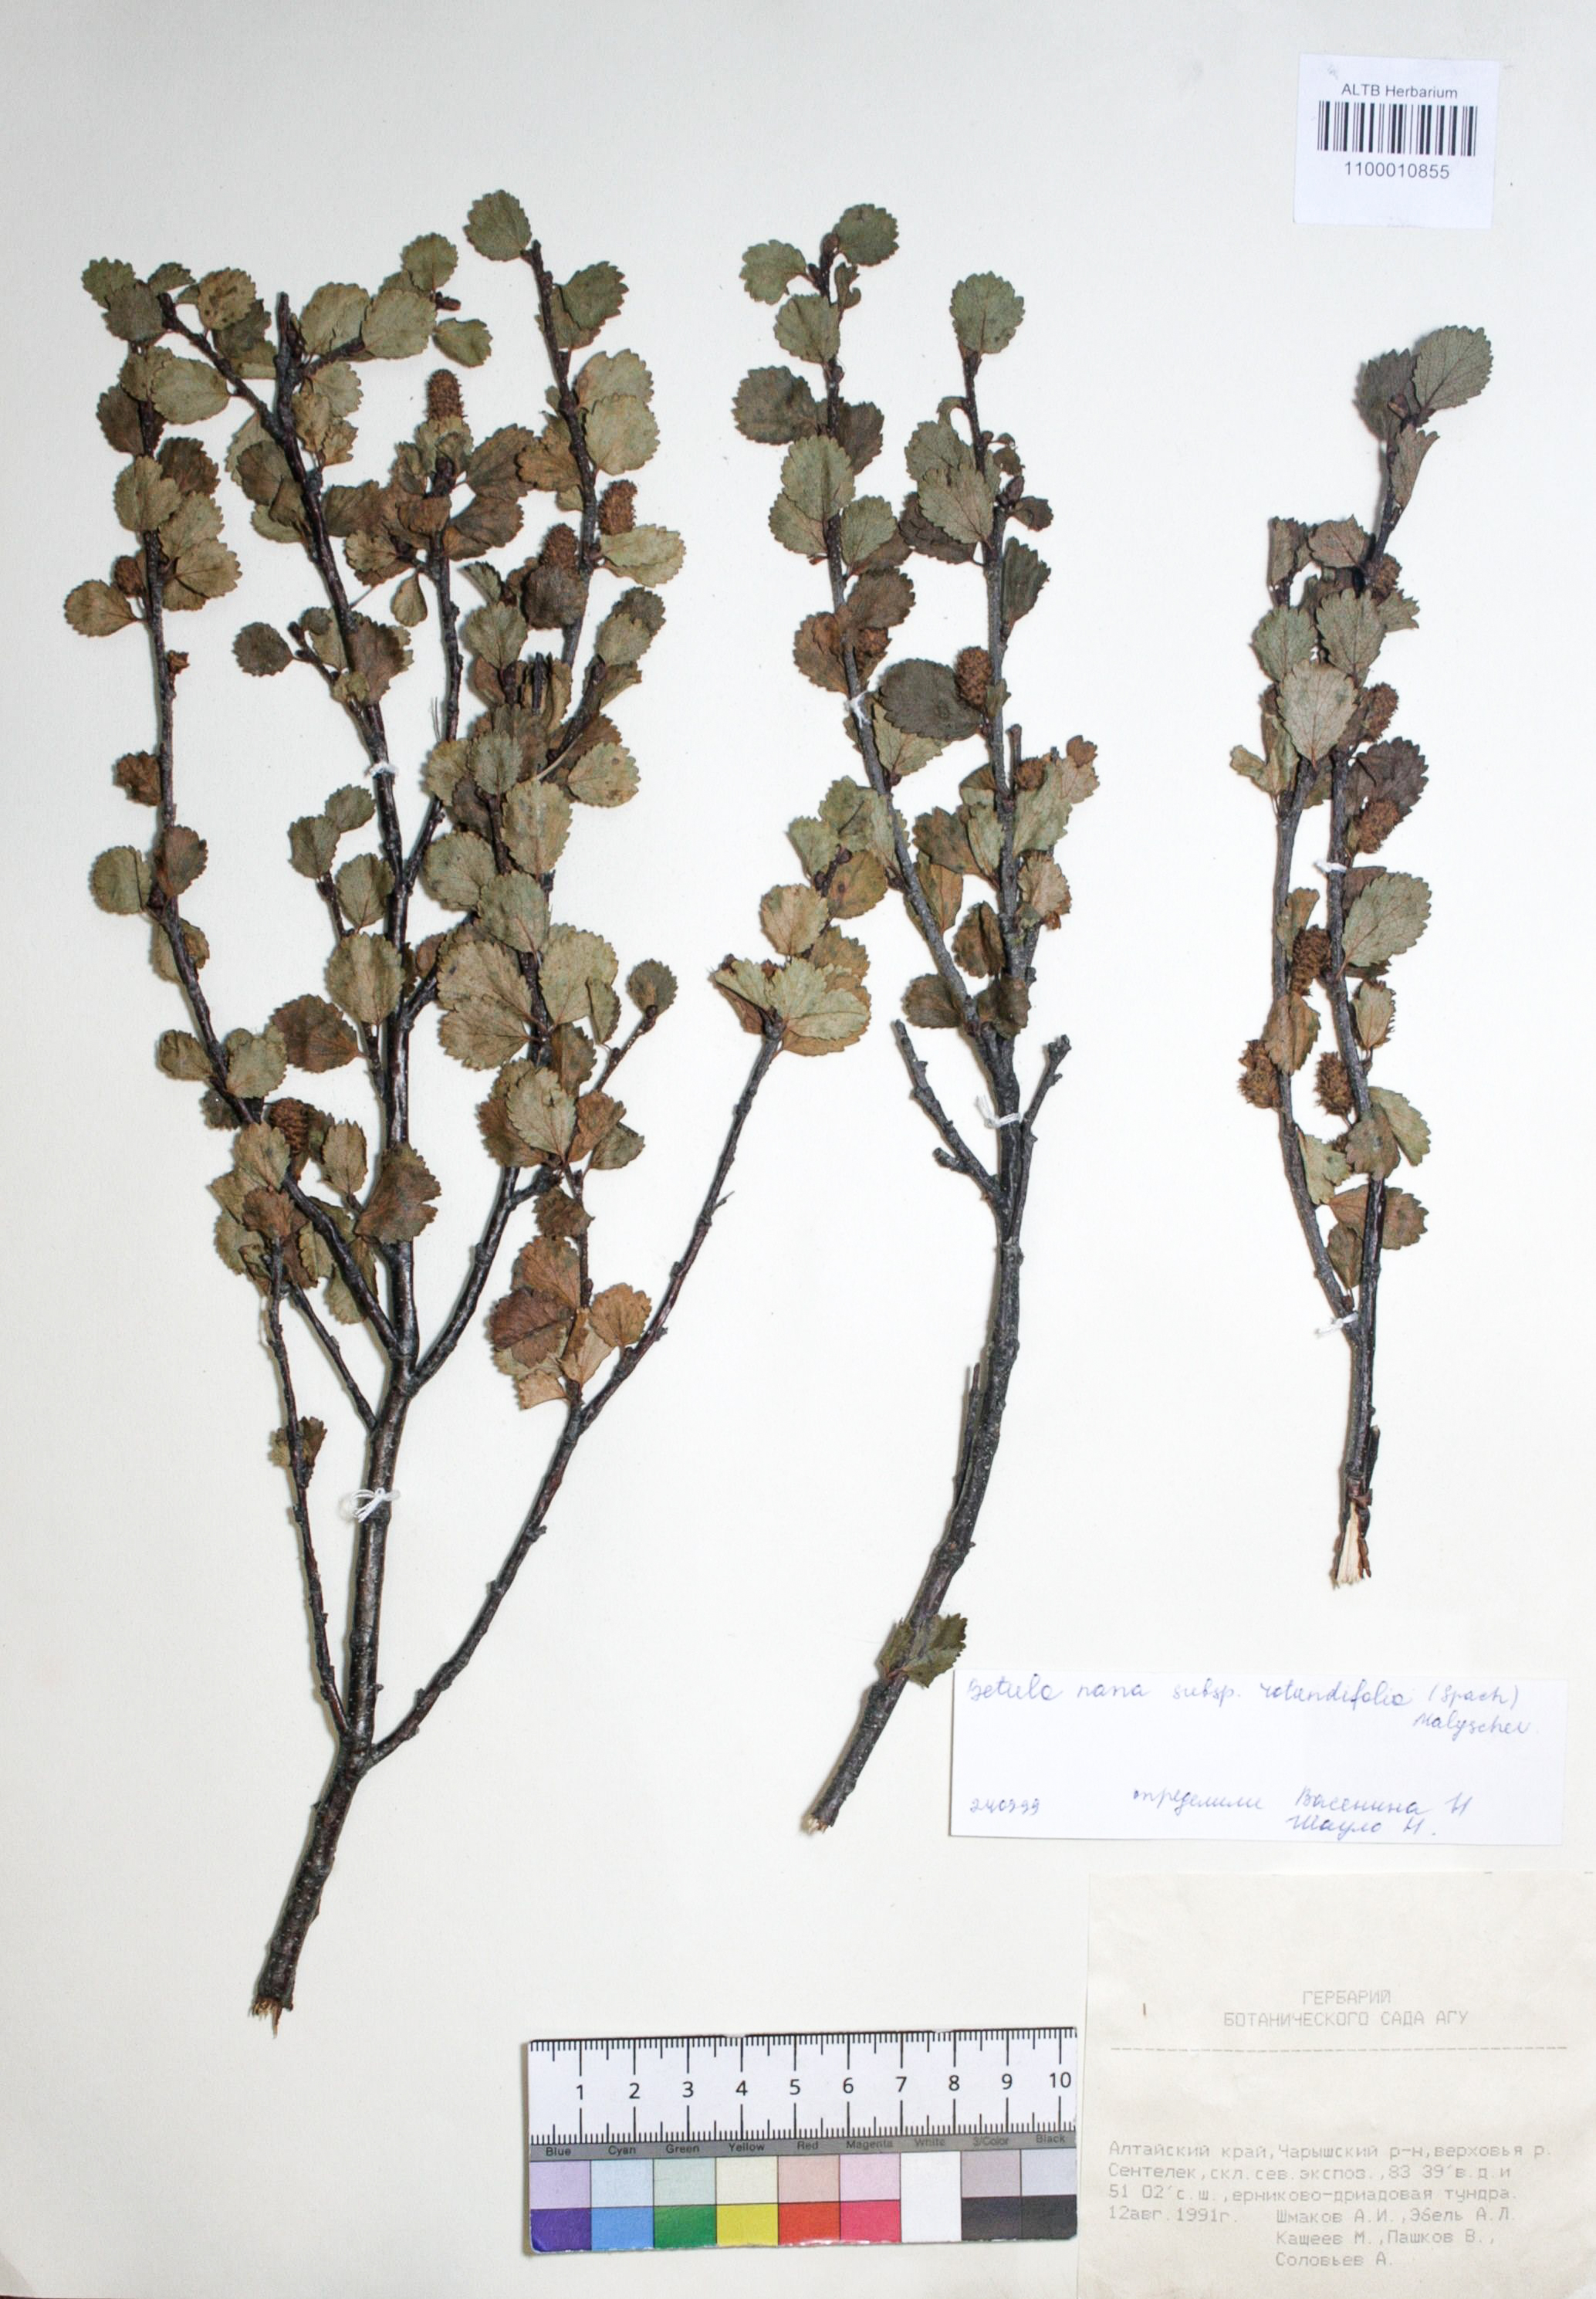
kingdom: Plantae
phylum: Tracheophyta
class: Magnoliopsida
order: Fagales
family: Betulaceae
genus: Betula
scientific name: Betula glandulosa
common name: Dwarf birch
